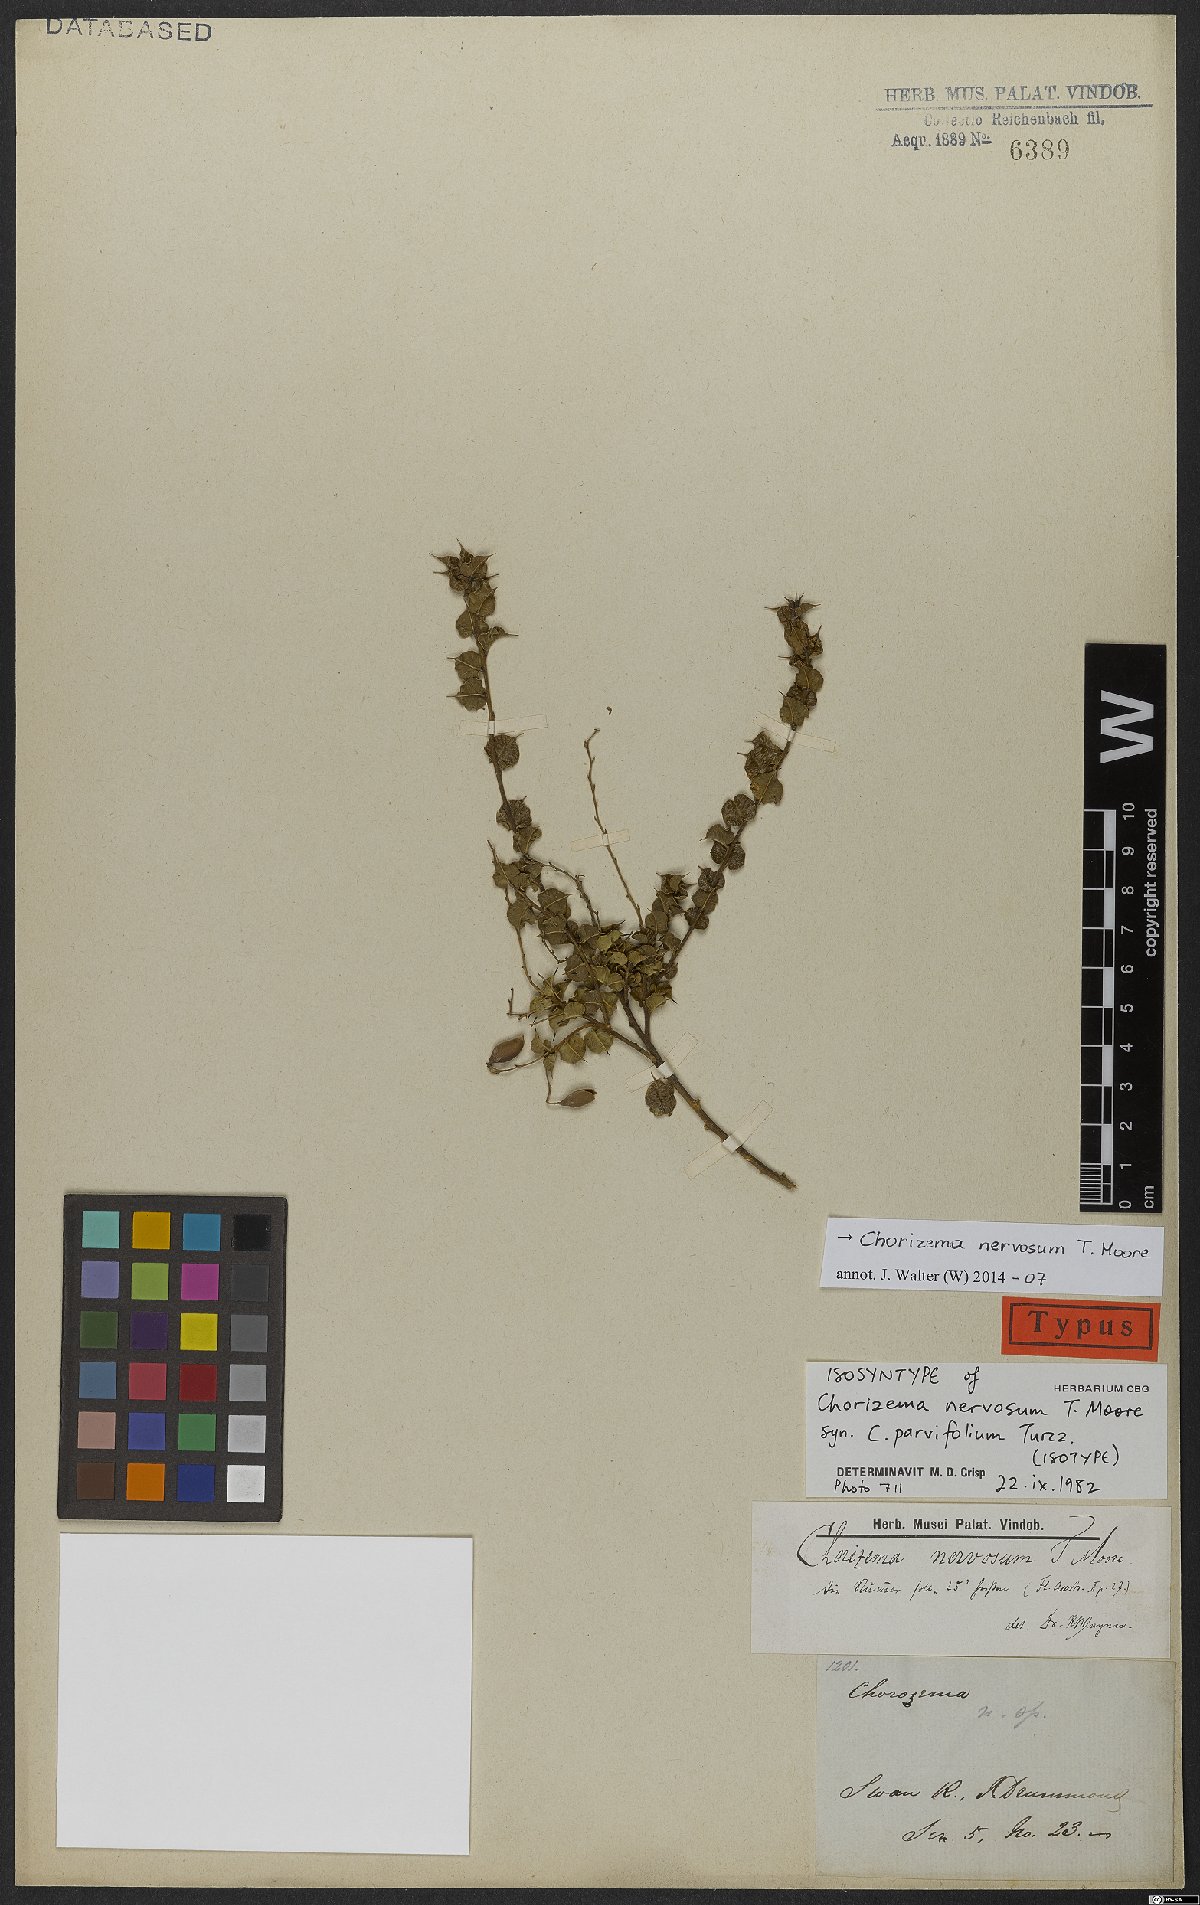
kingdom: Plantae
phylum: Tracheophyta
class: Magnoliopsida
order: Fabales
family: Fabaceae
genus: Chorizema
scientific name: Chorizema nervosum
